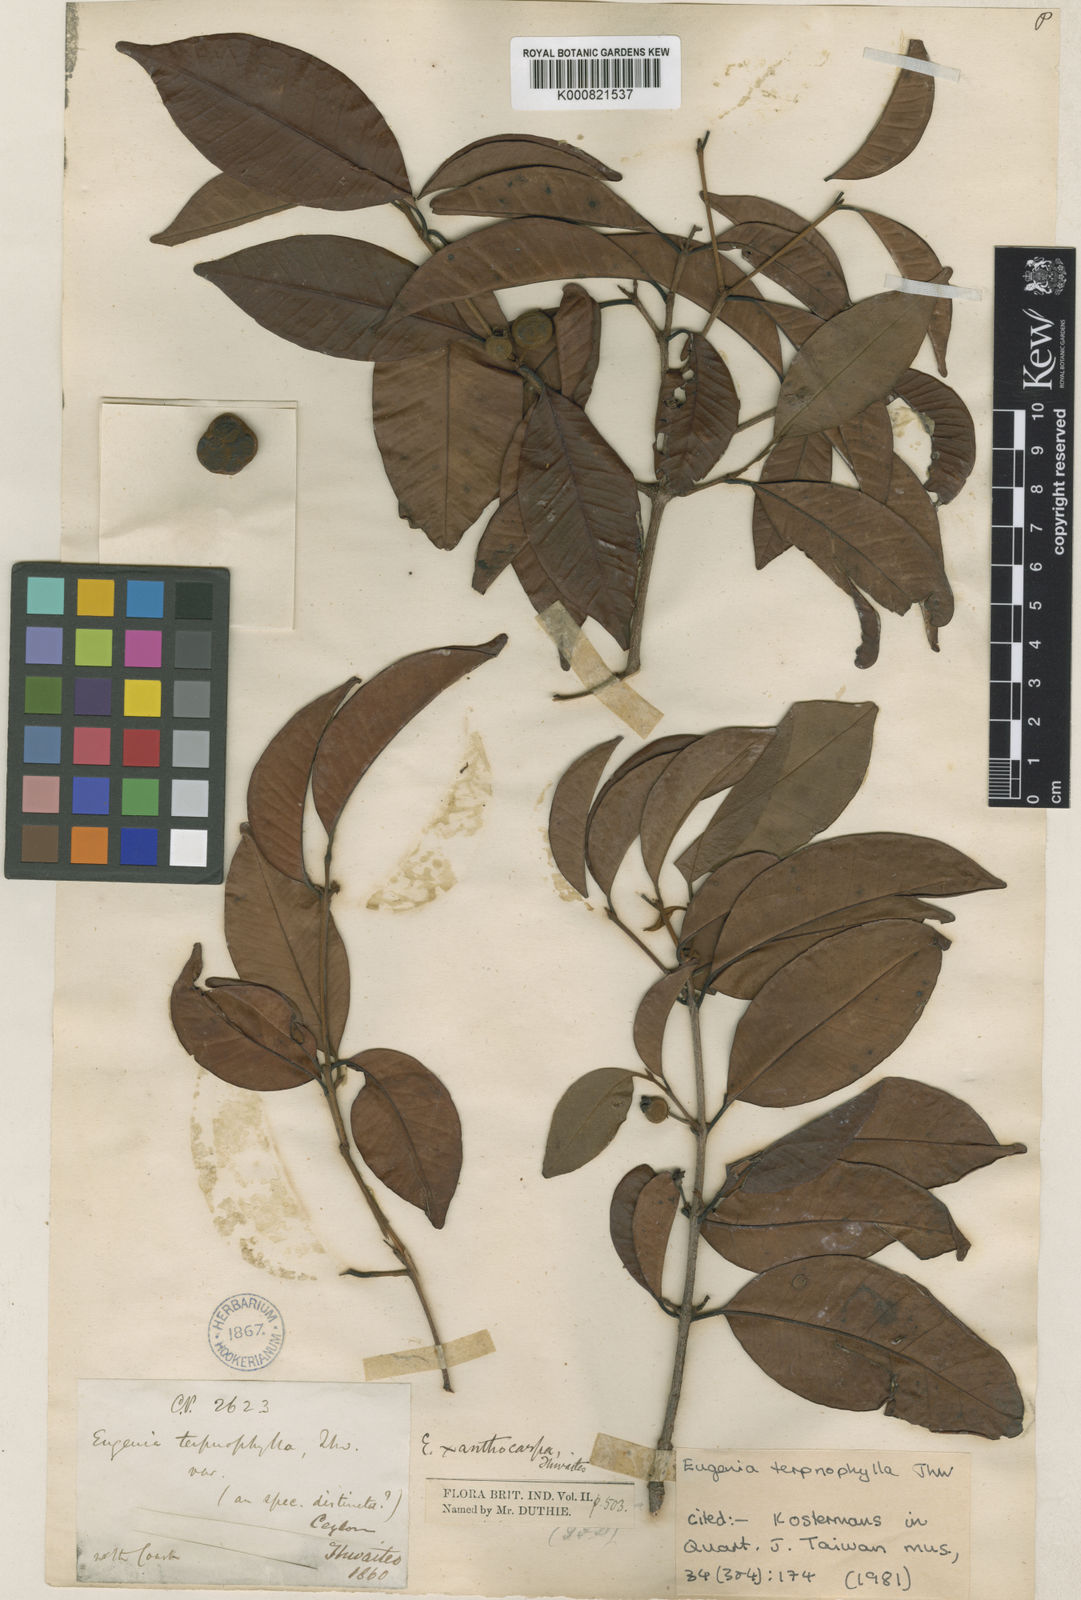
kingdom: Plantae
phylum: Tracheophyta
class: Magnoliopsida
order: Myrtales
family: Myrtaceae
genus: Eugenia
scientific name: Eugenia terpnophylla
